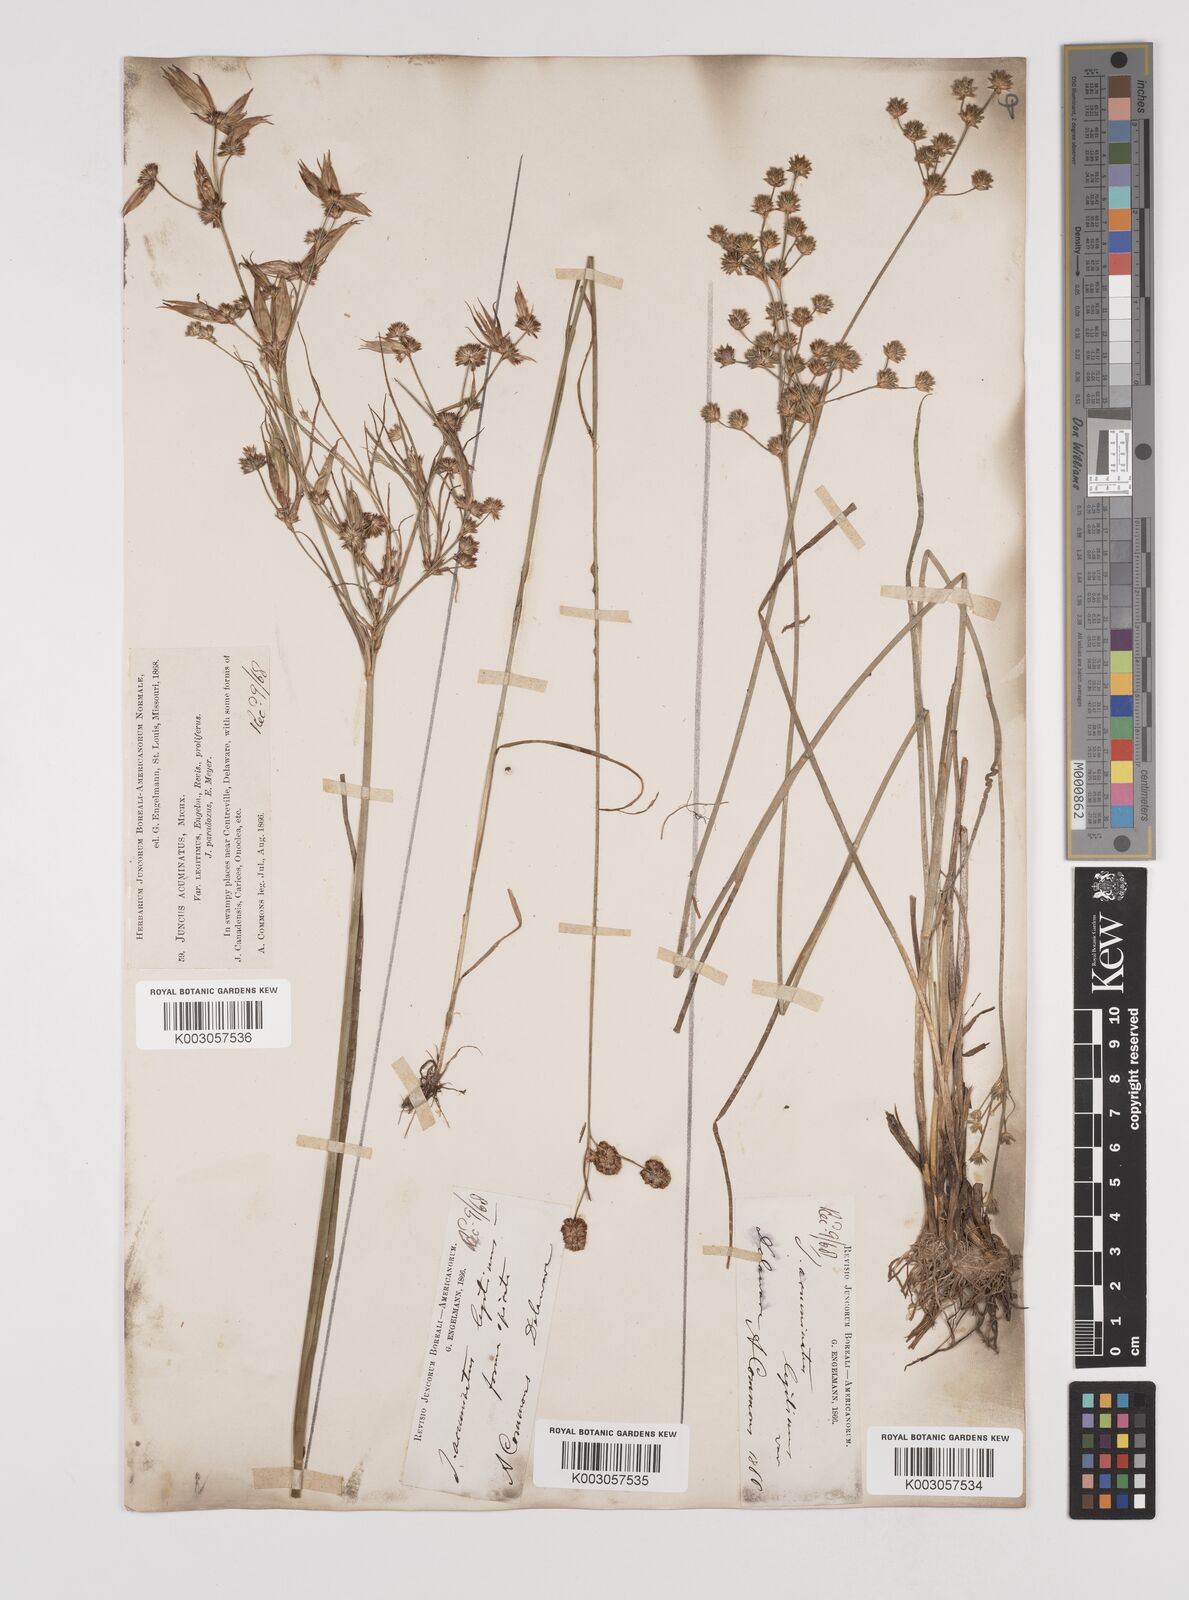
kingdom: Plantae
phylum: Tracheophyta
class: Liliopsida
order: Poales
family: Juncaceae
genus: Juncus
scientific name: Juncus acuminatus
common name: Knotty-leaved rush
